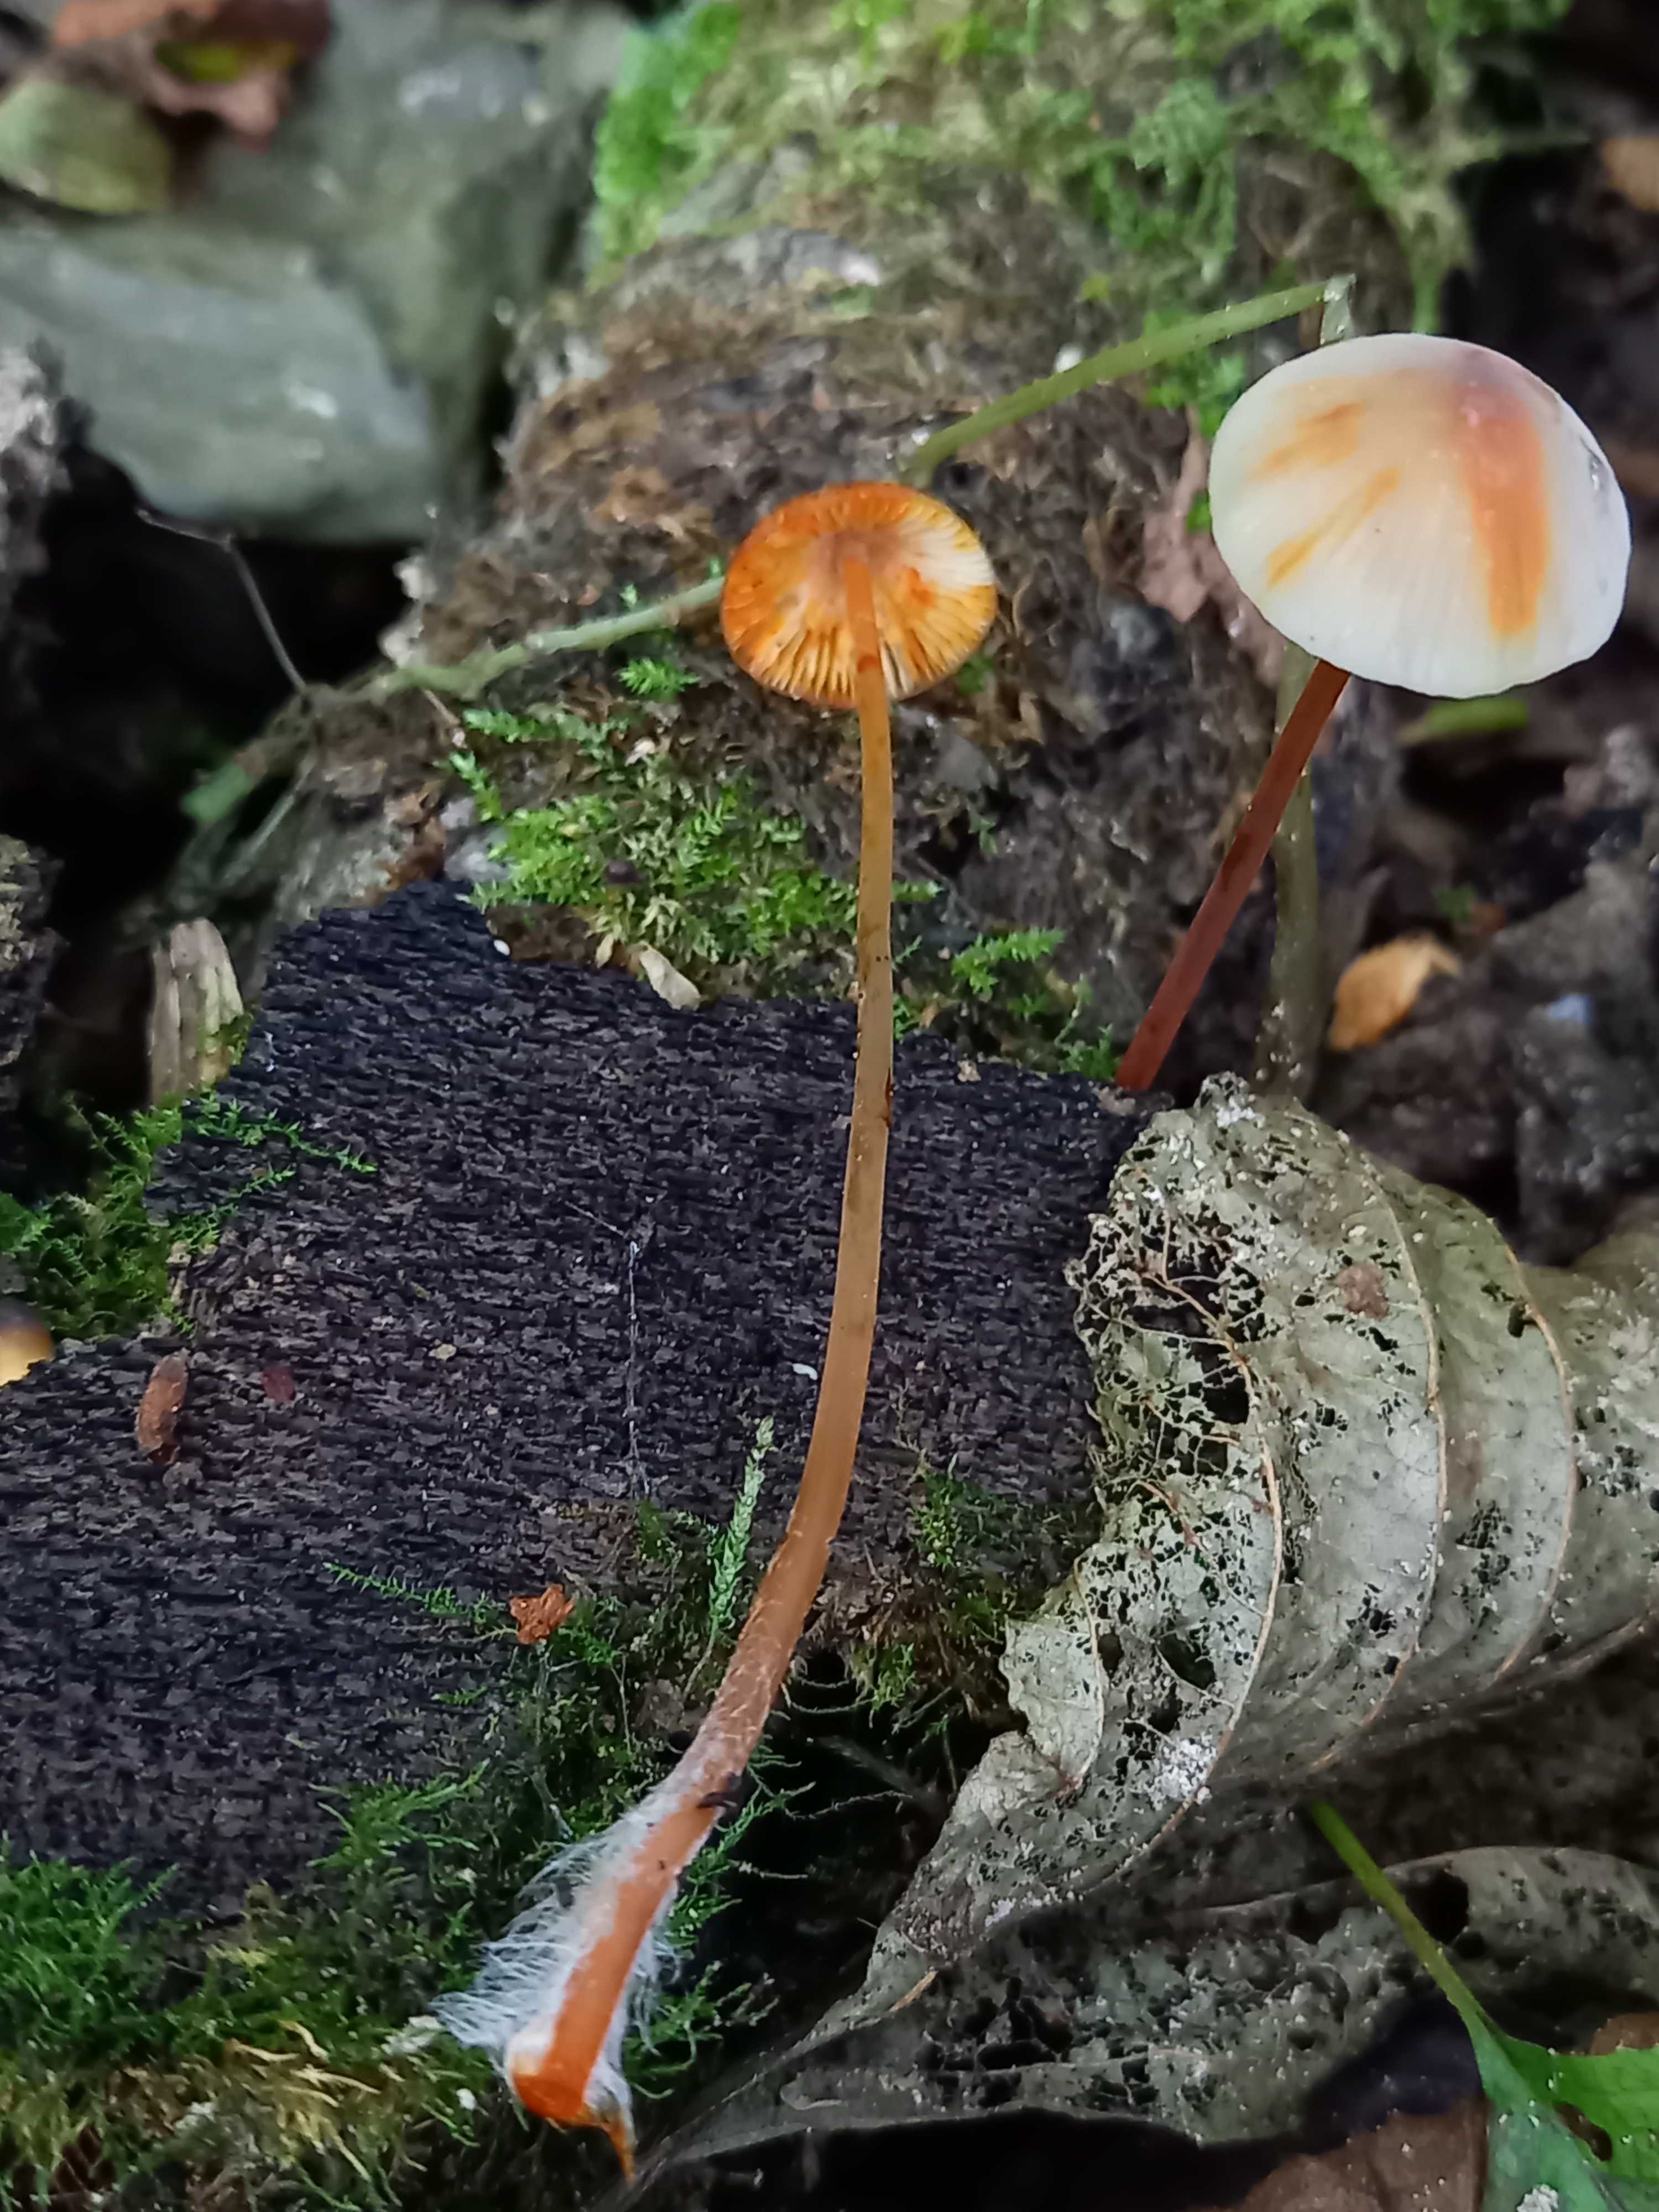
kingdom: Fungi
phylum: Basidiomycota
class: Agaricomycetes
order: Agaricales
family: Mycenaceae
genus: Mycena
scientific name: Mycena crocata
